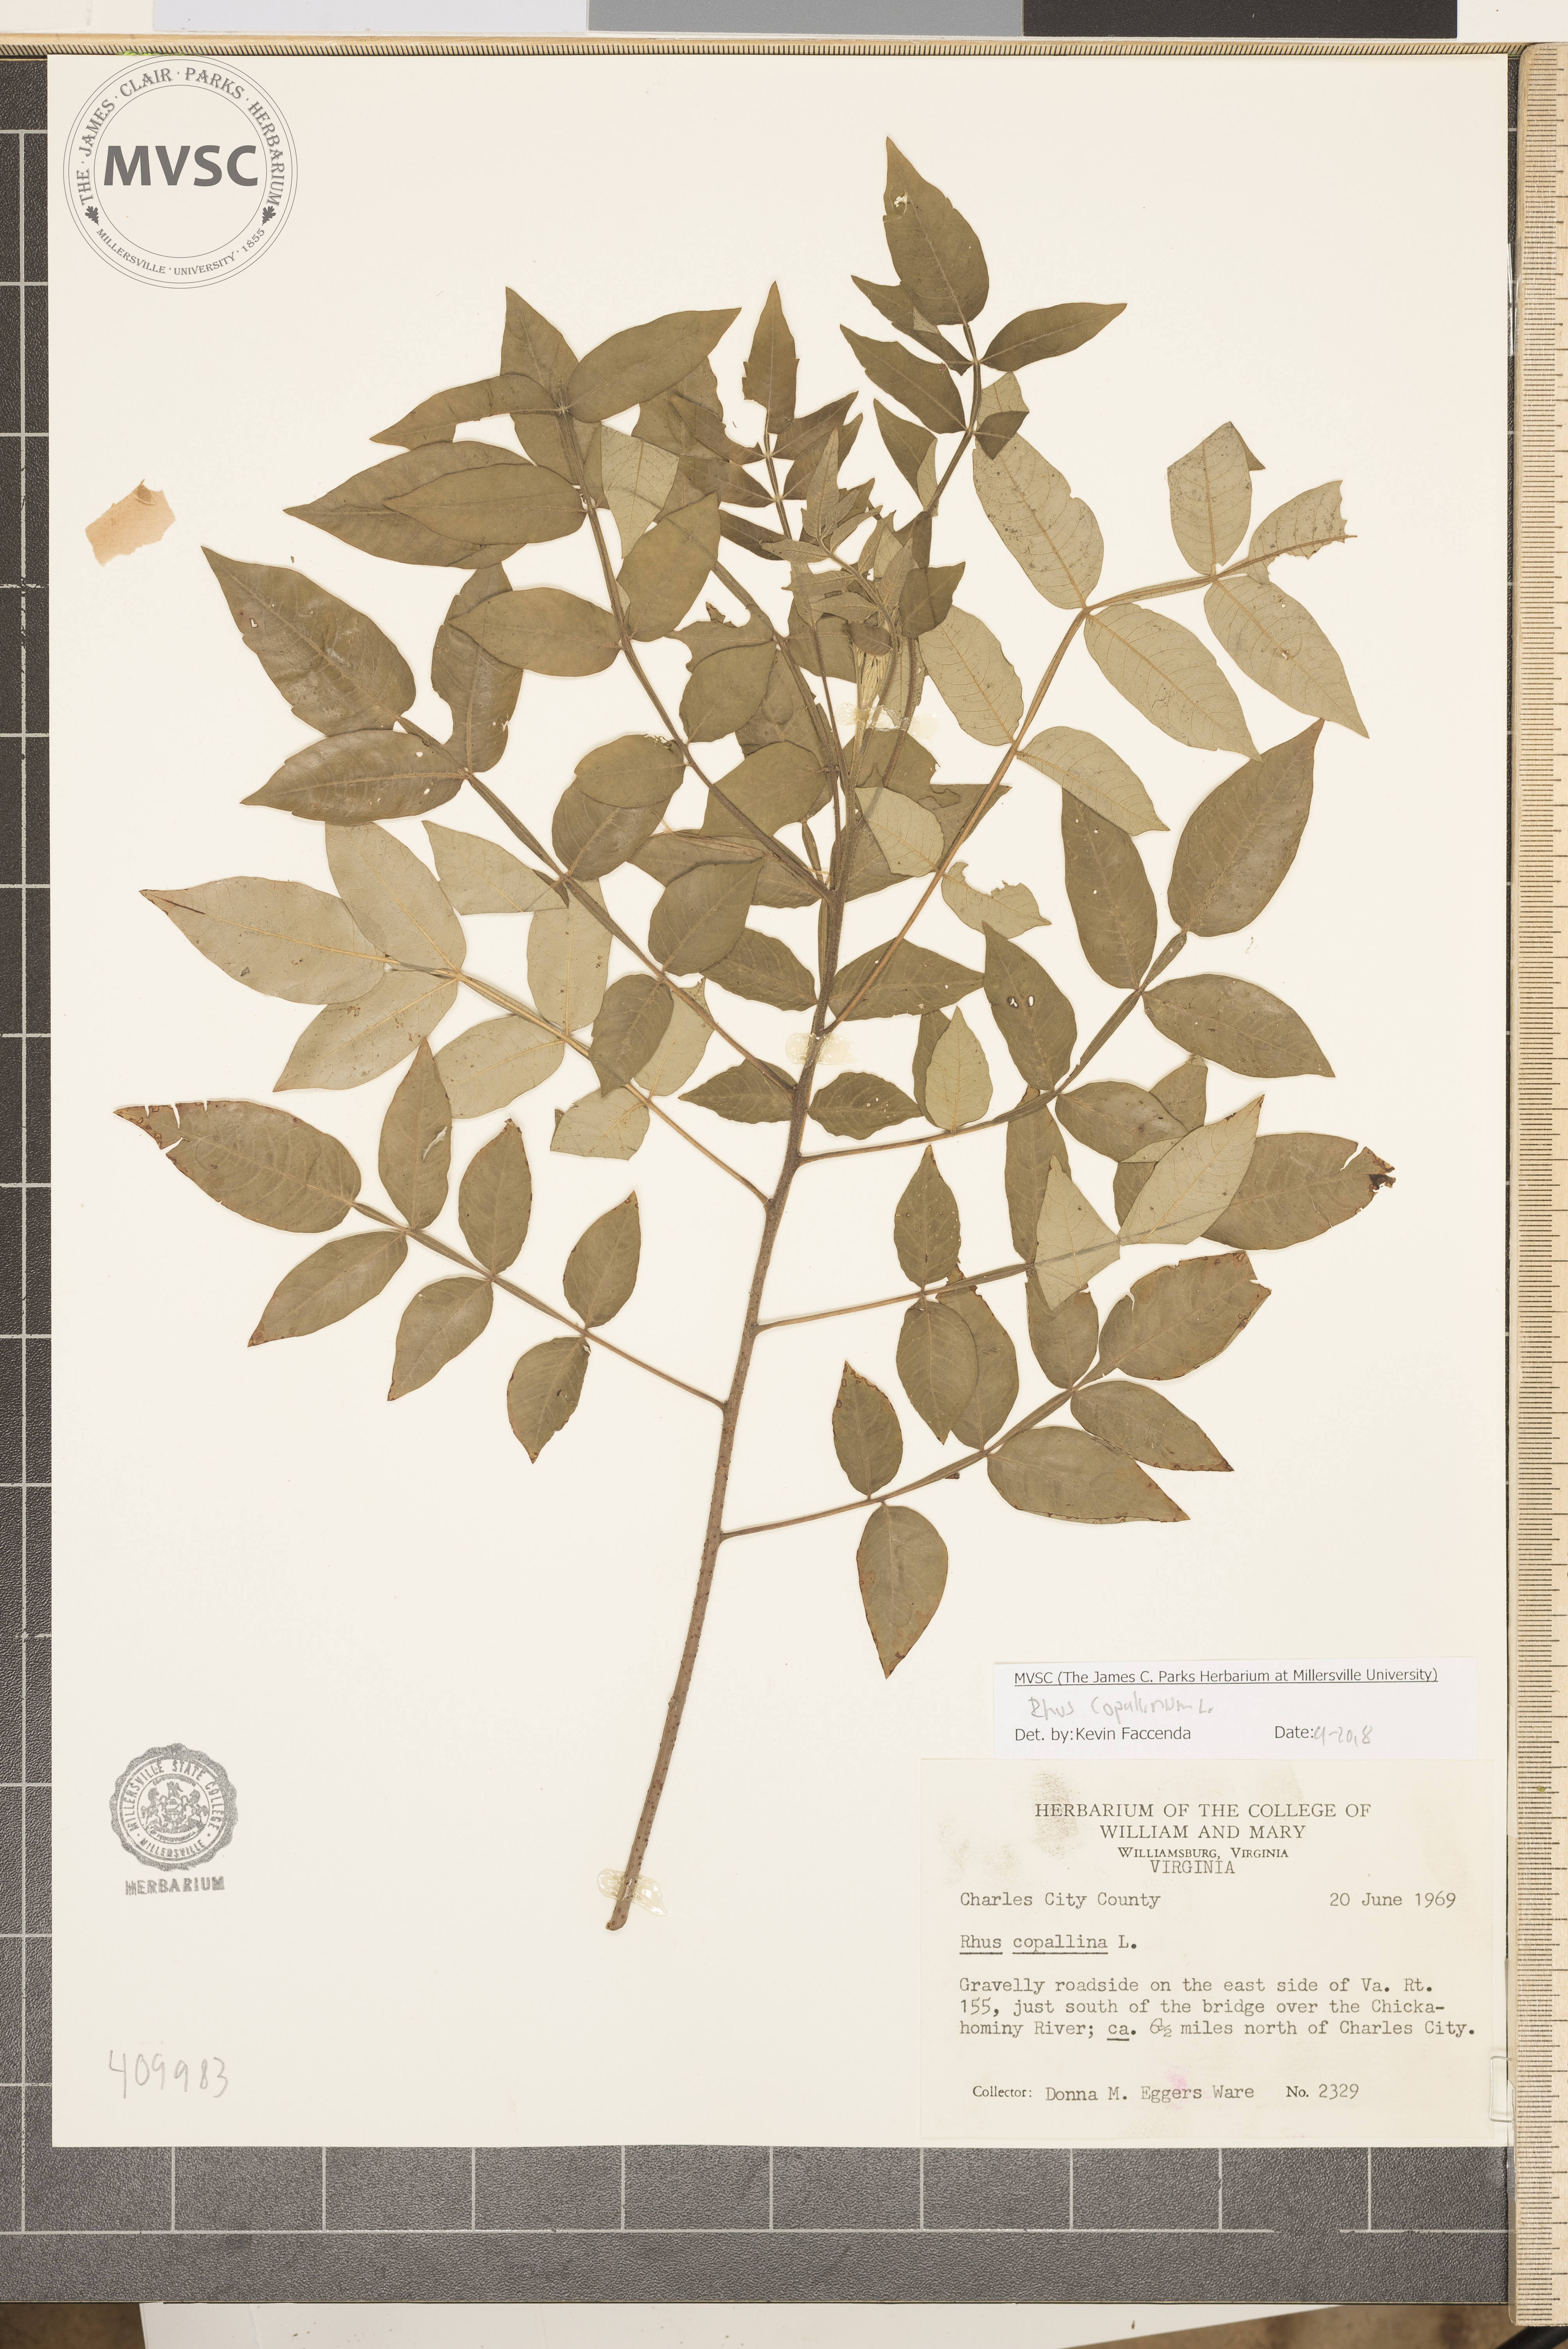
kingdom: Plantae
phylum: Tracheophyta
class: Magnoliopsida
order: Sapindales
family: Anacardiaceae
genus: Rhus
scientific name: Rhus copallina
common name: Shining sumac
